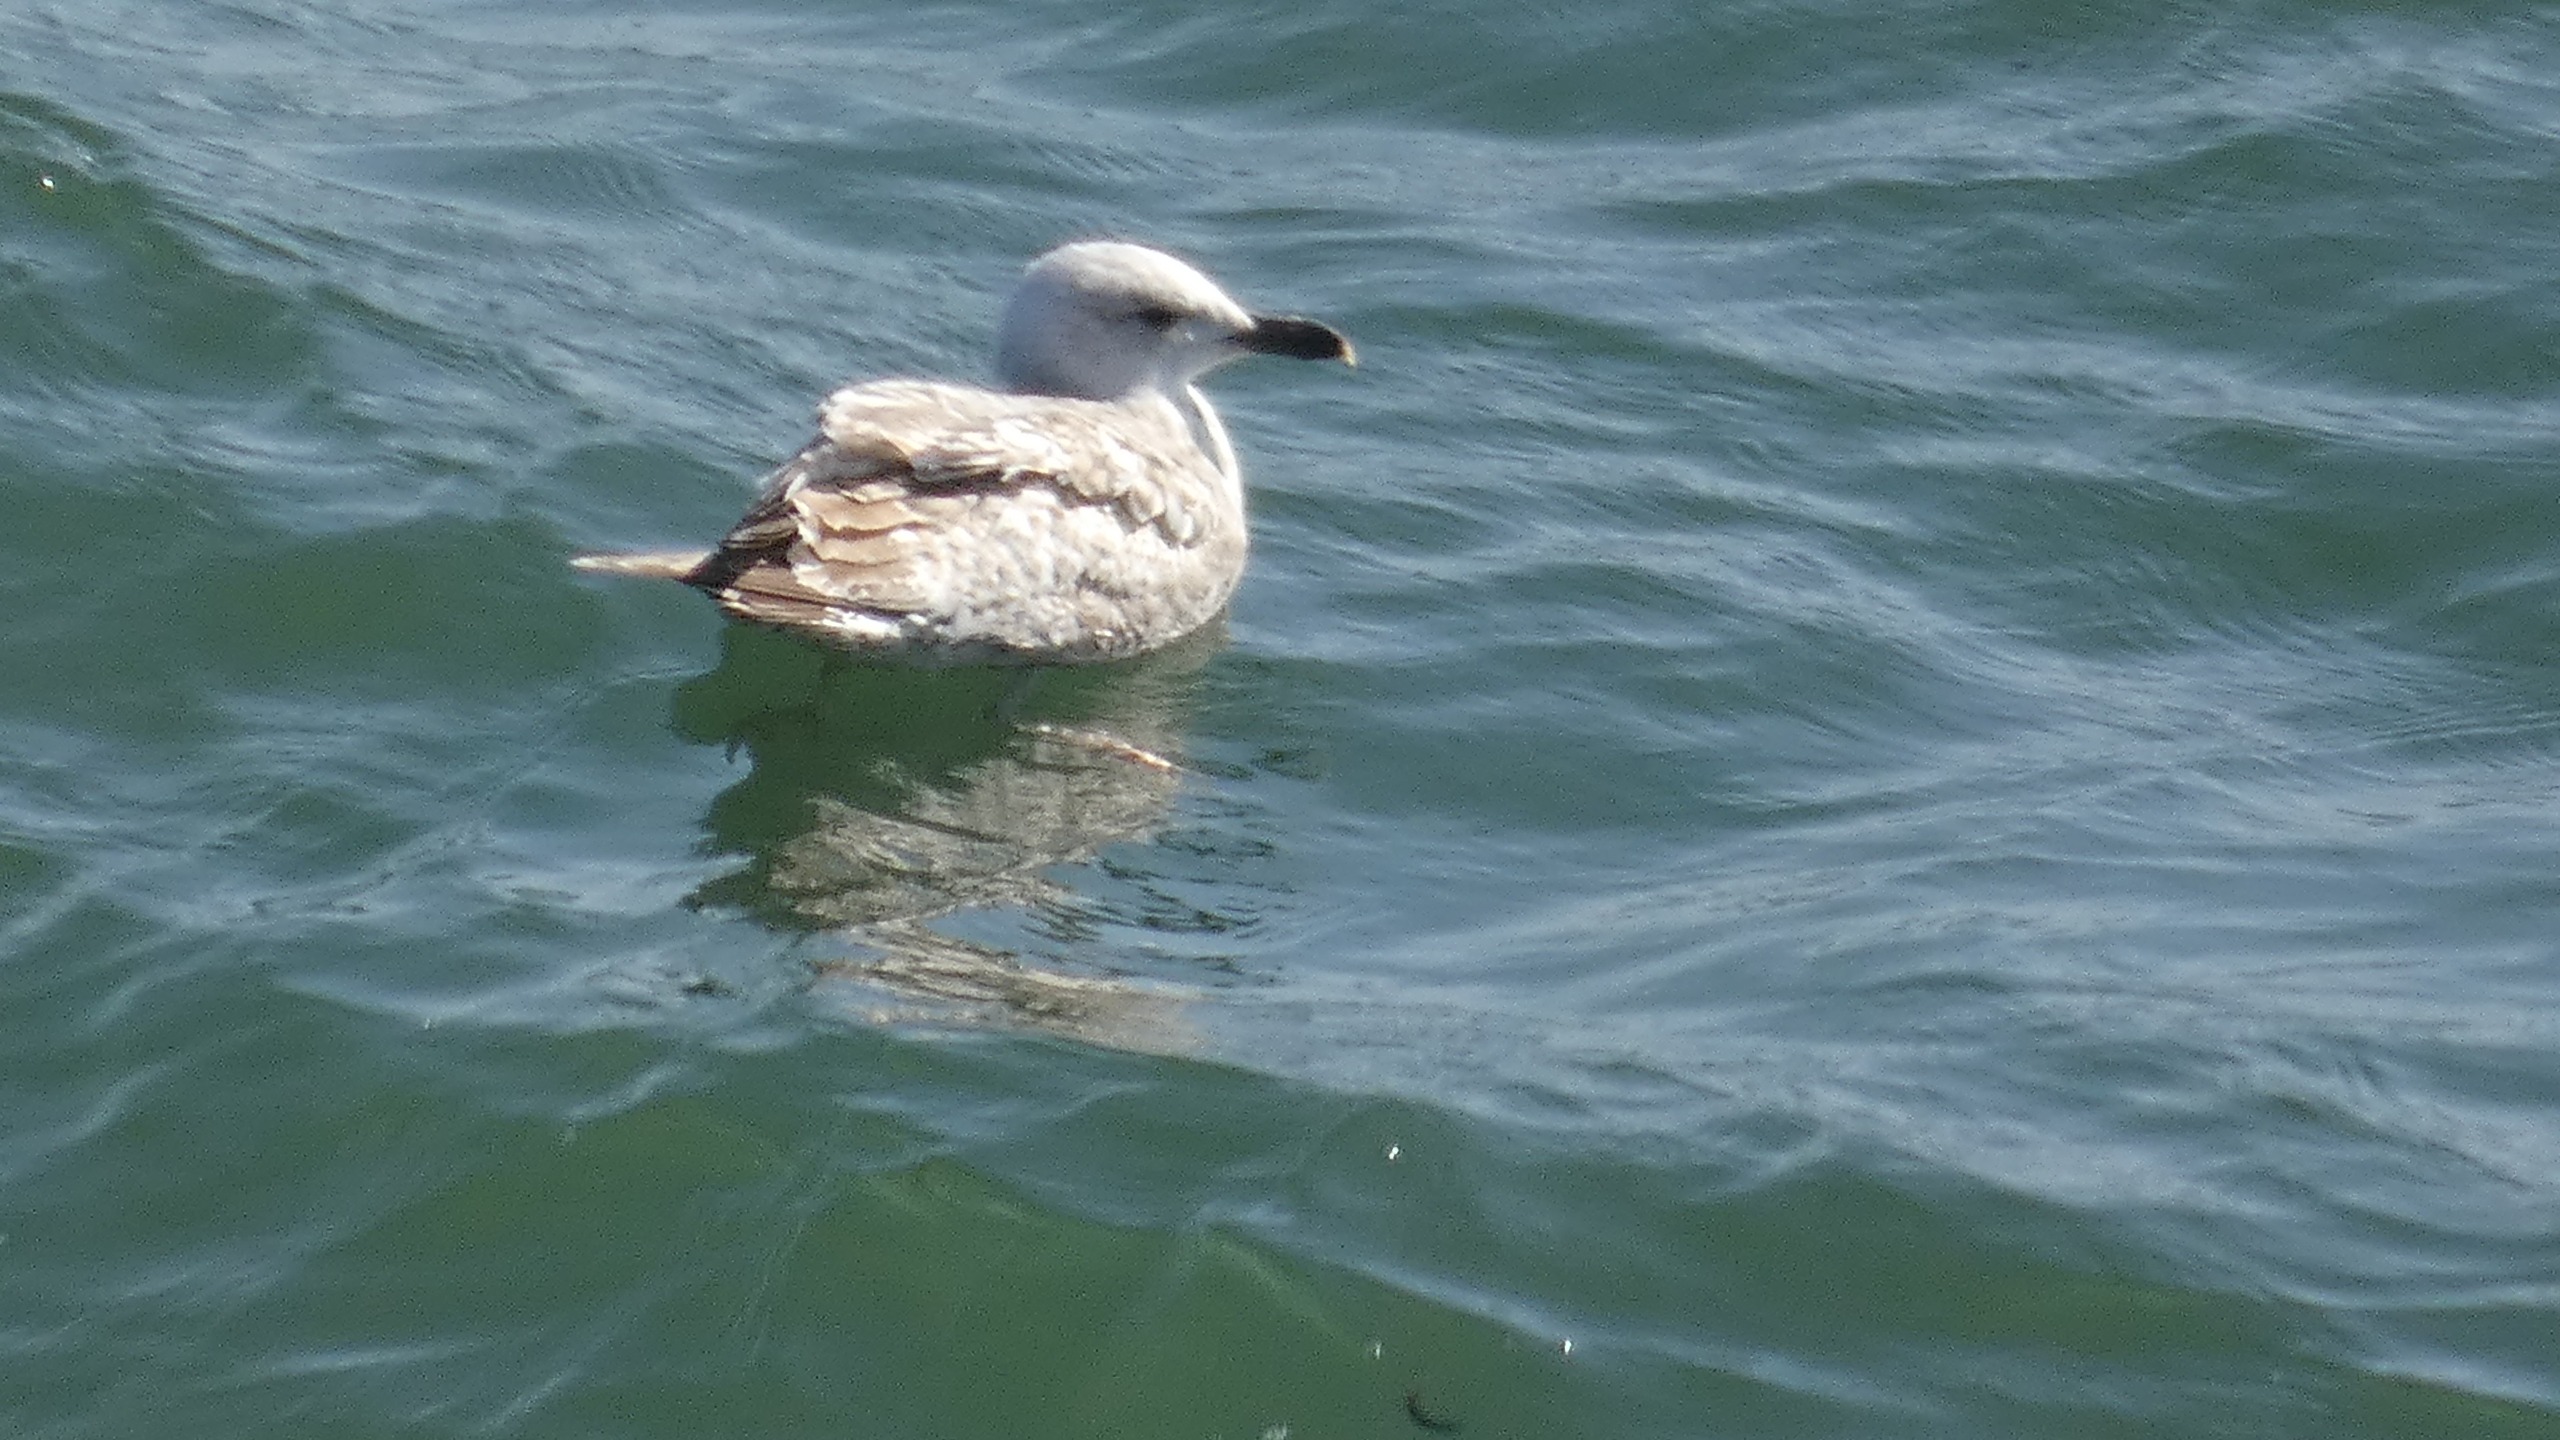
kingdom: Animalia
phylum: Chordata
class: Aves
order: Charadriiformes
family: Laridae
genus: Larus
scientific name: Larus argentatus
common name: Sølvmåge
